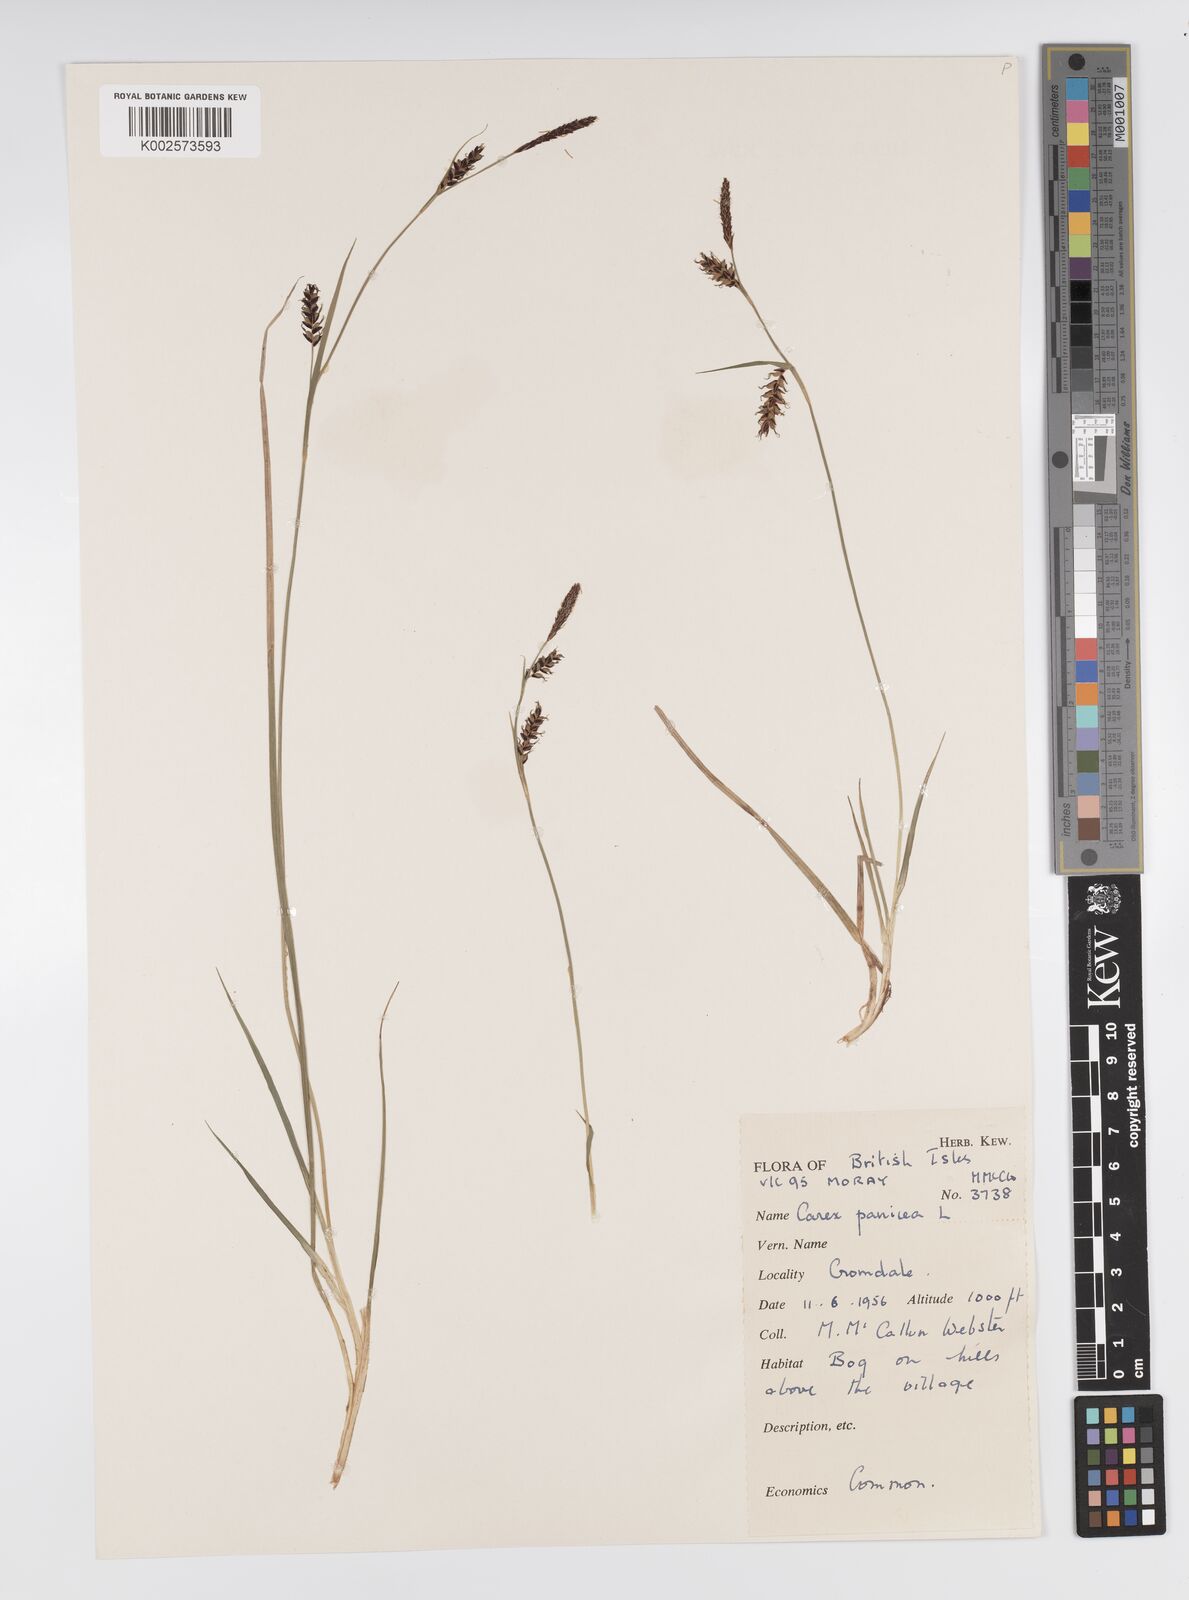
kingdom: Plantae
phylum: Tracheophyta
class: Liliopsida
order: Poales
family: Cyperaceae
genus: Carex
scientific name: Carex panicea
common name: Carnation sedge
